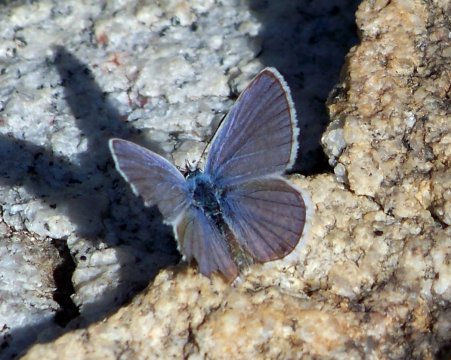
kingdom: Animalia
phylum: Arthropoda
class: Insecta
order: Lepidoptera
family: Lycaenidae
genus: Hemiargus
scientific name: Hemiargus ceraunus
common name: Ceraunus Blue
